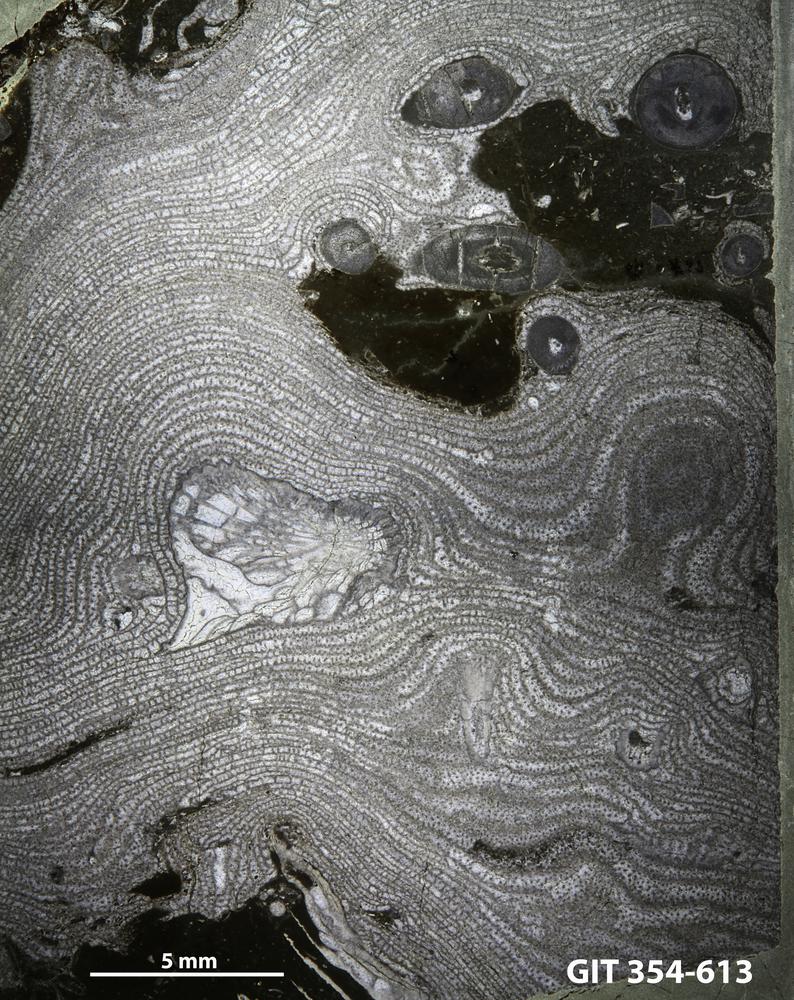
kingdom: Animalia
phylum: Porifera
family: Stromatoporellidae
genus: Simplexodictyon
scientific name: Simplexodictyon
